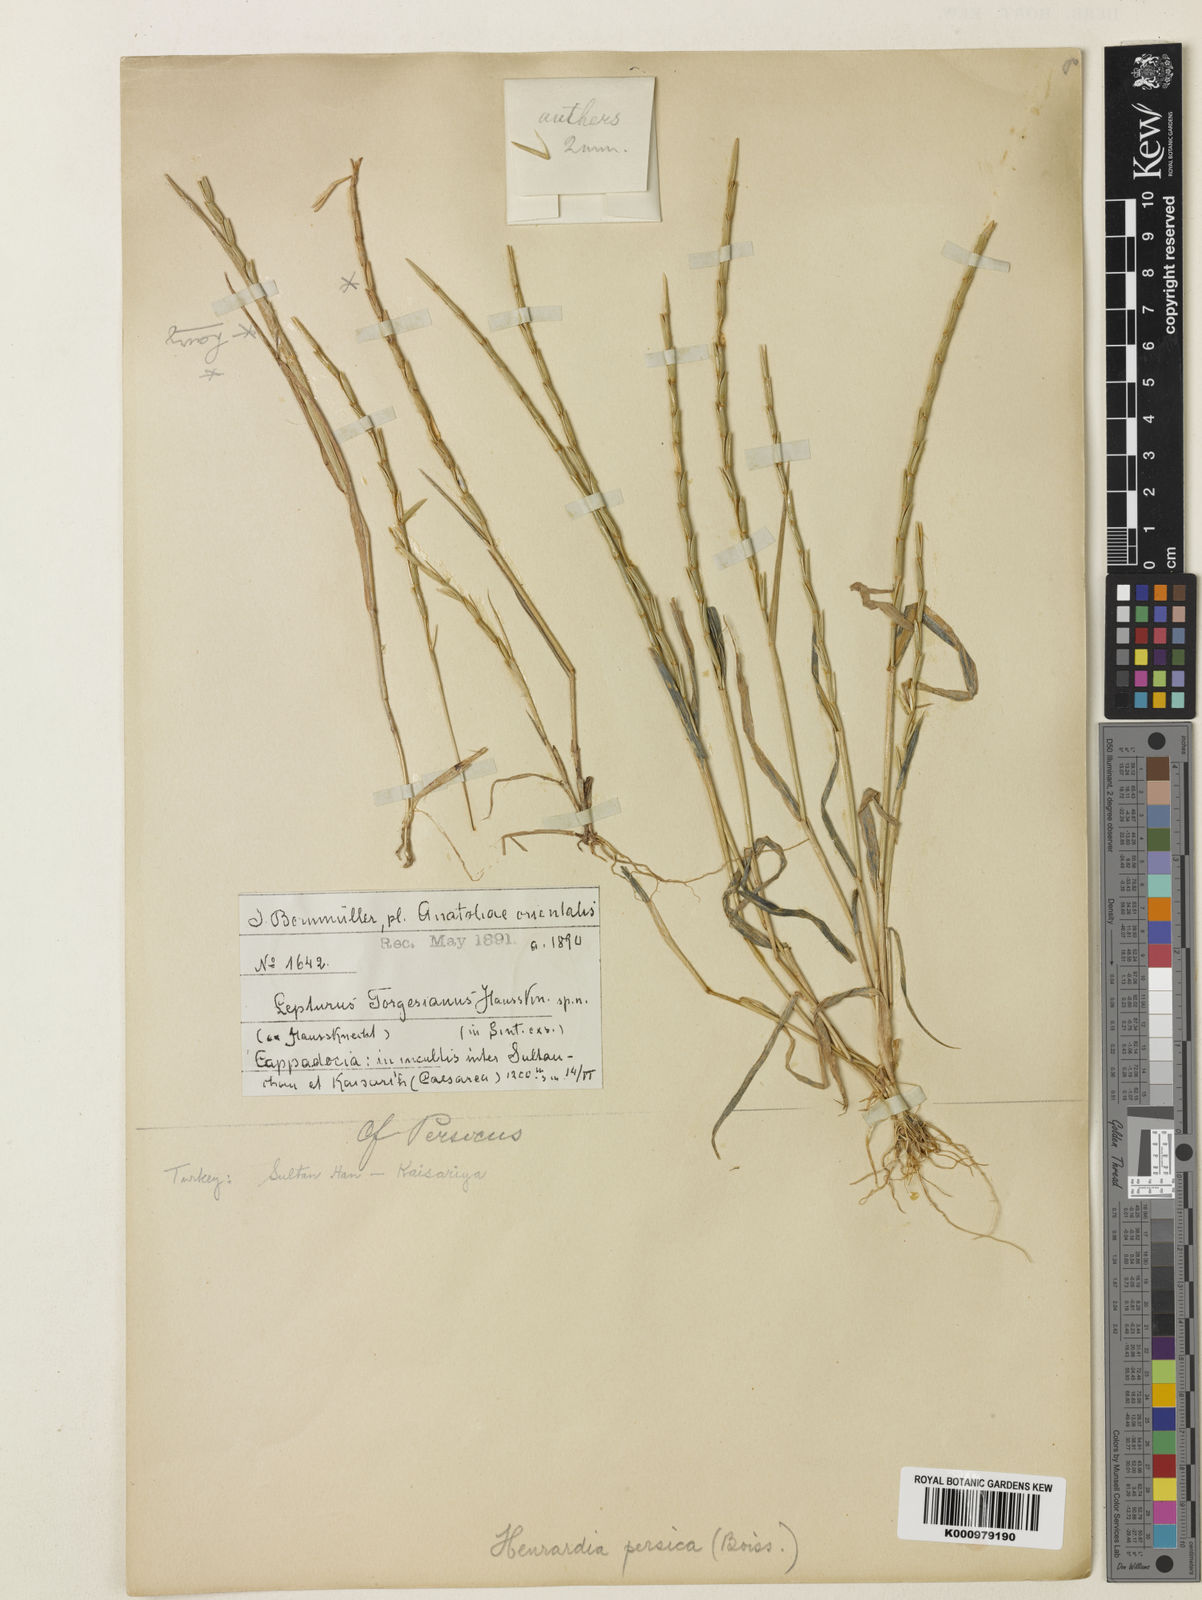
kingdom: Plantae
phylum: Tracheophyta
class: Liliopsida
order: Poales
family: Poaceae
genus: Henrardia
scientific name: Henrardia persica
